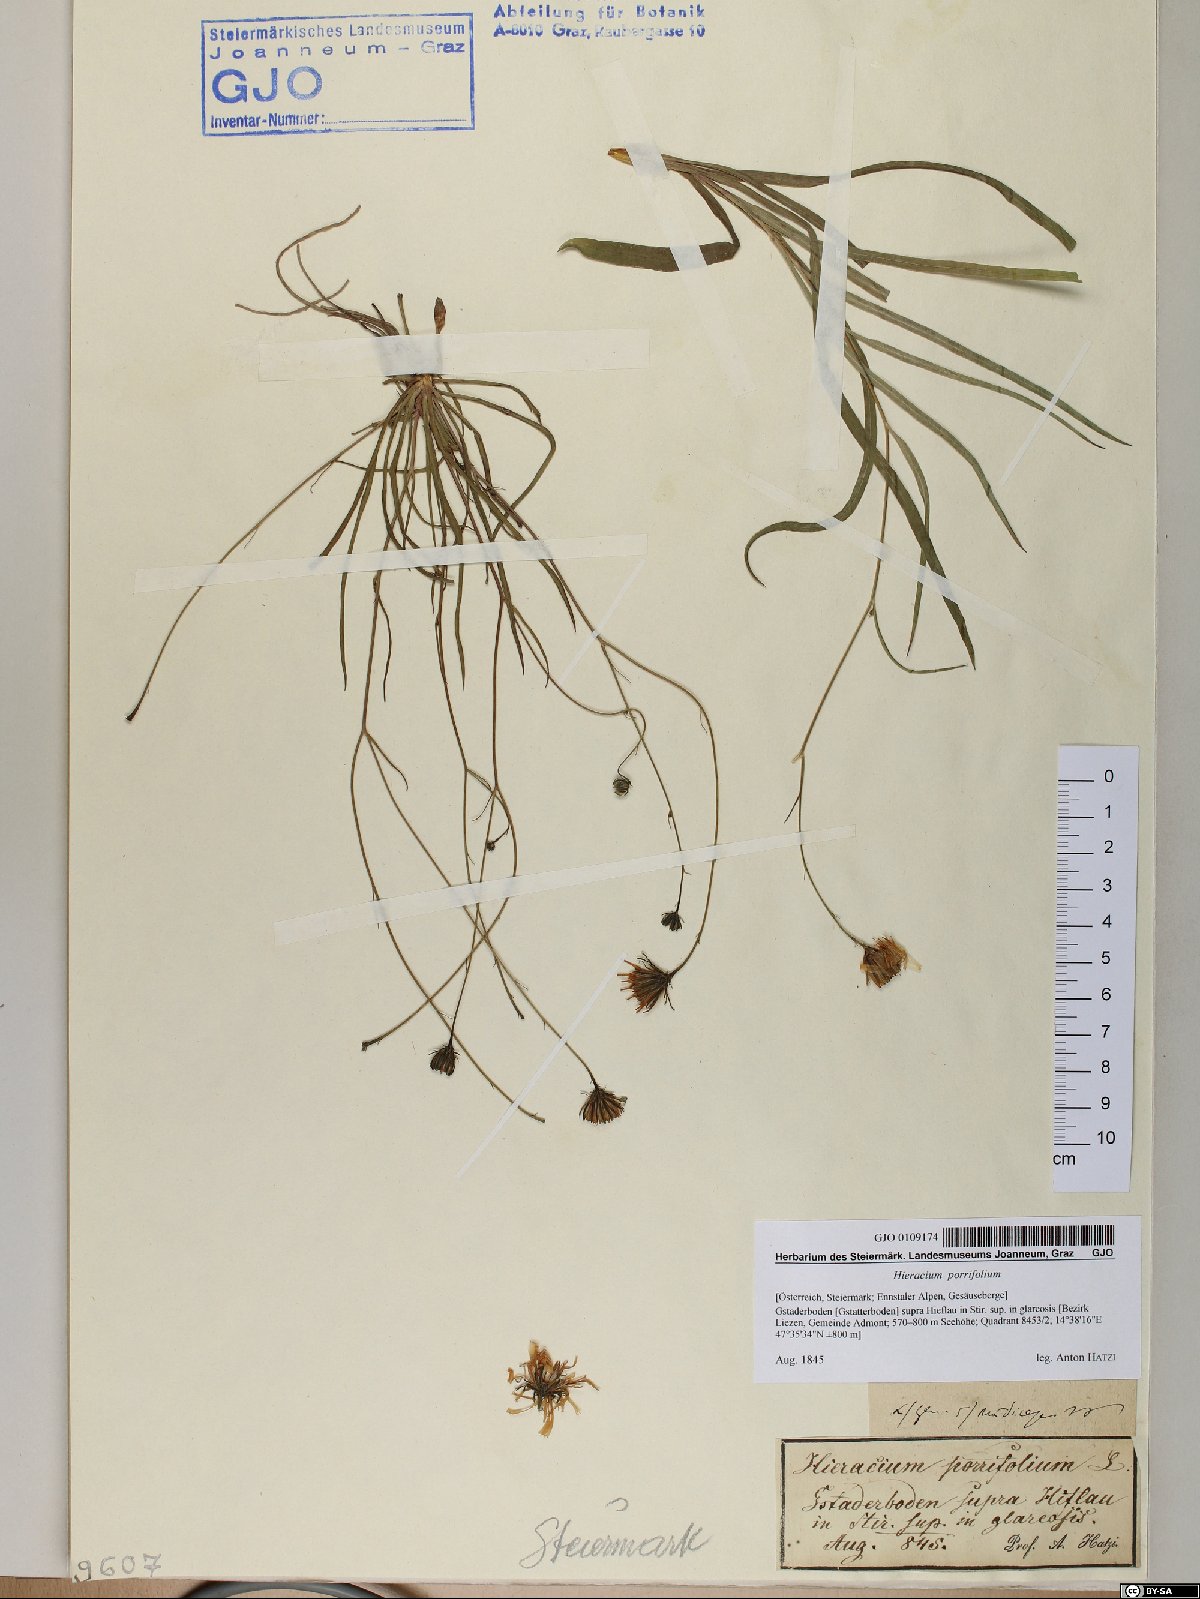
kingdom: Plantae
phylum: Tracheophyta
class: Magnoliopsida
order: Asterales
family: Asteraceae
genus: Hieracium
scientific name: Hieracium porrifolium
